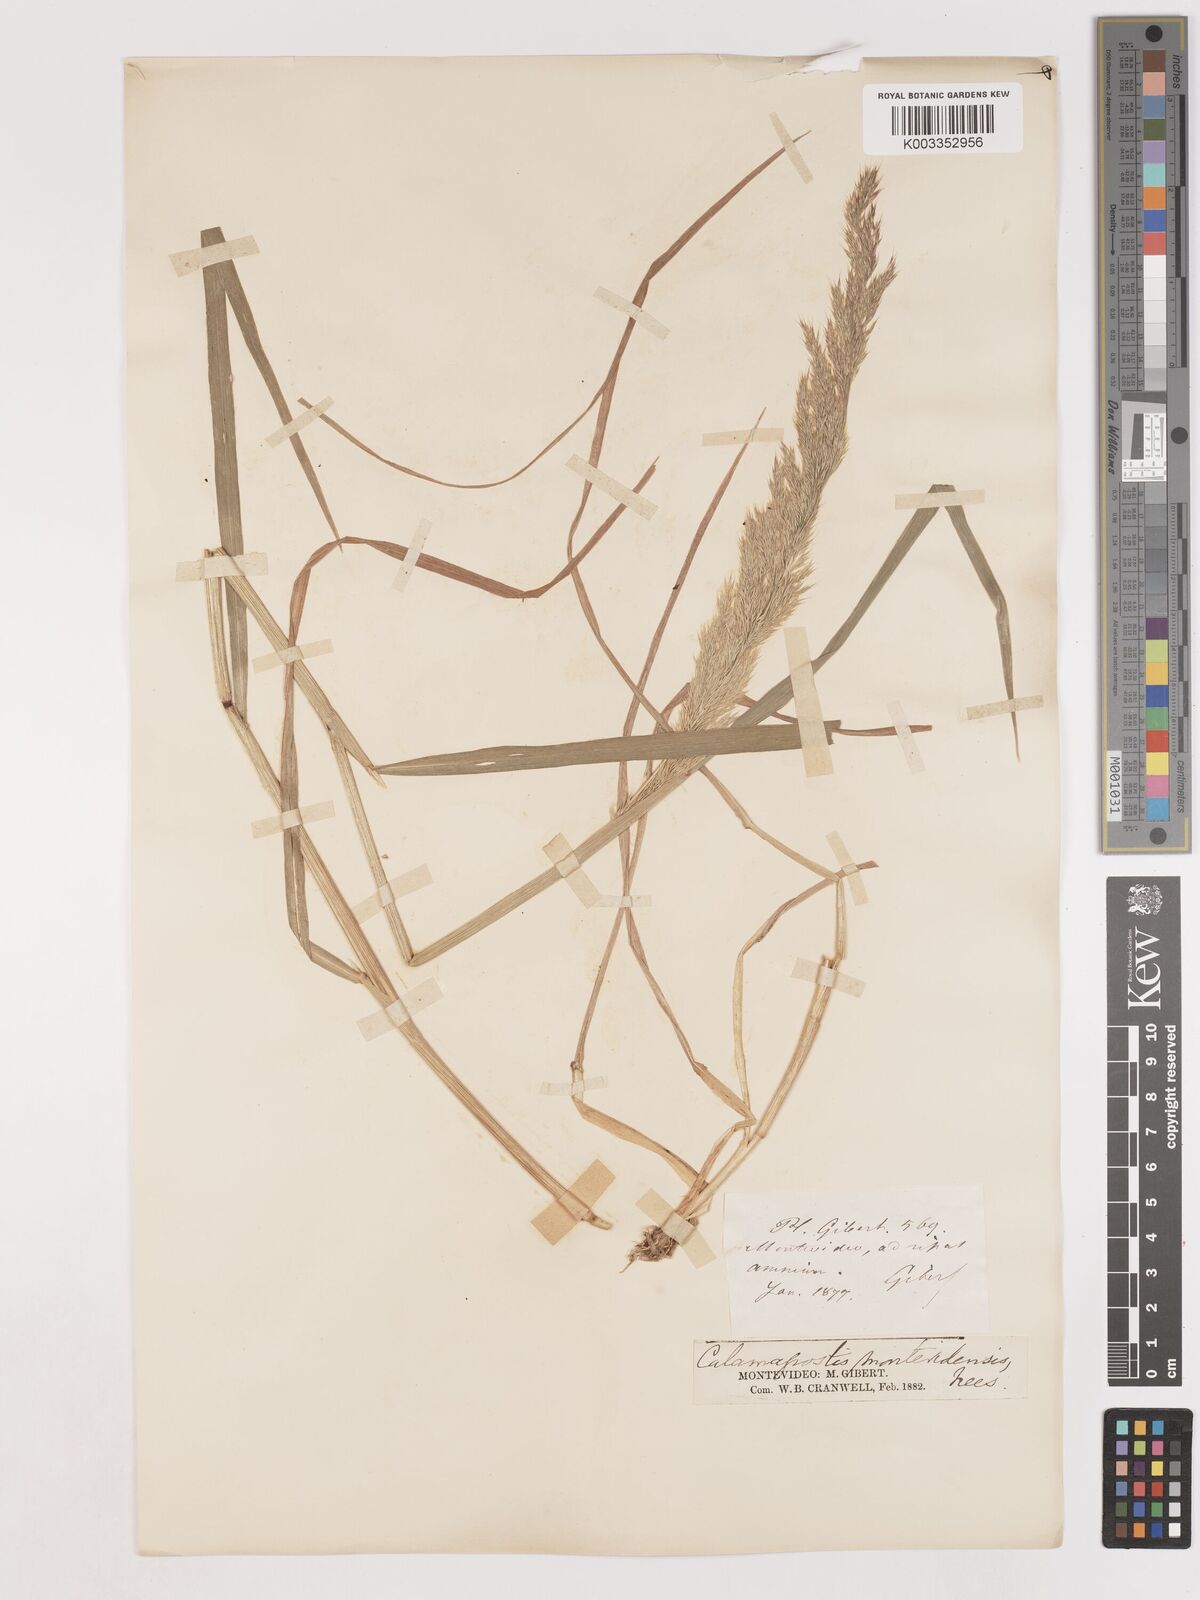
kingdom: Plantae
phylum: Tracheophyta
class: Liliopsida
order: Poales
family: Poaceae
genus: Cinnagrostis
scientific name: Cinnagrostis viridiflavescens
